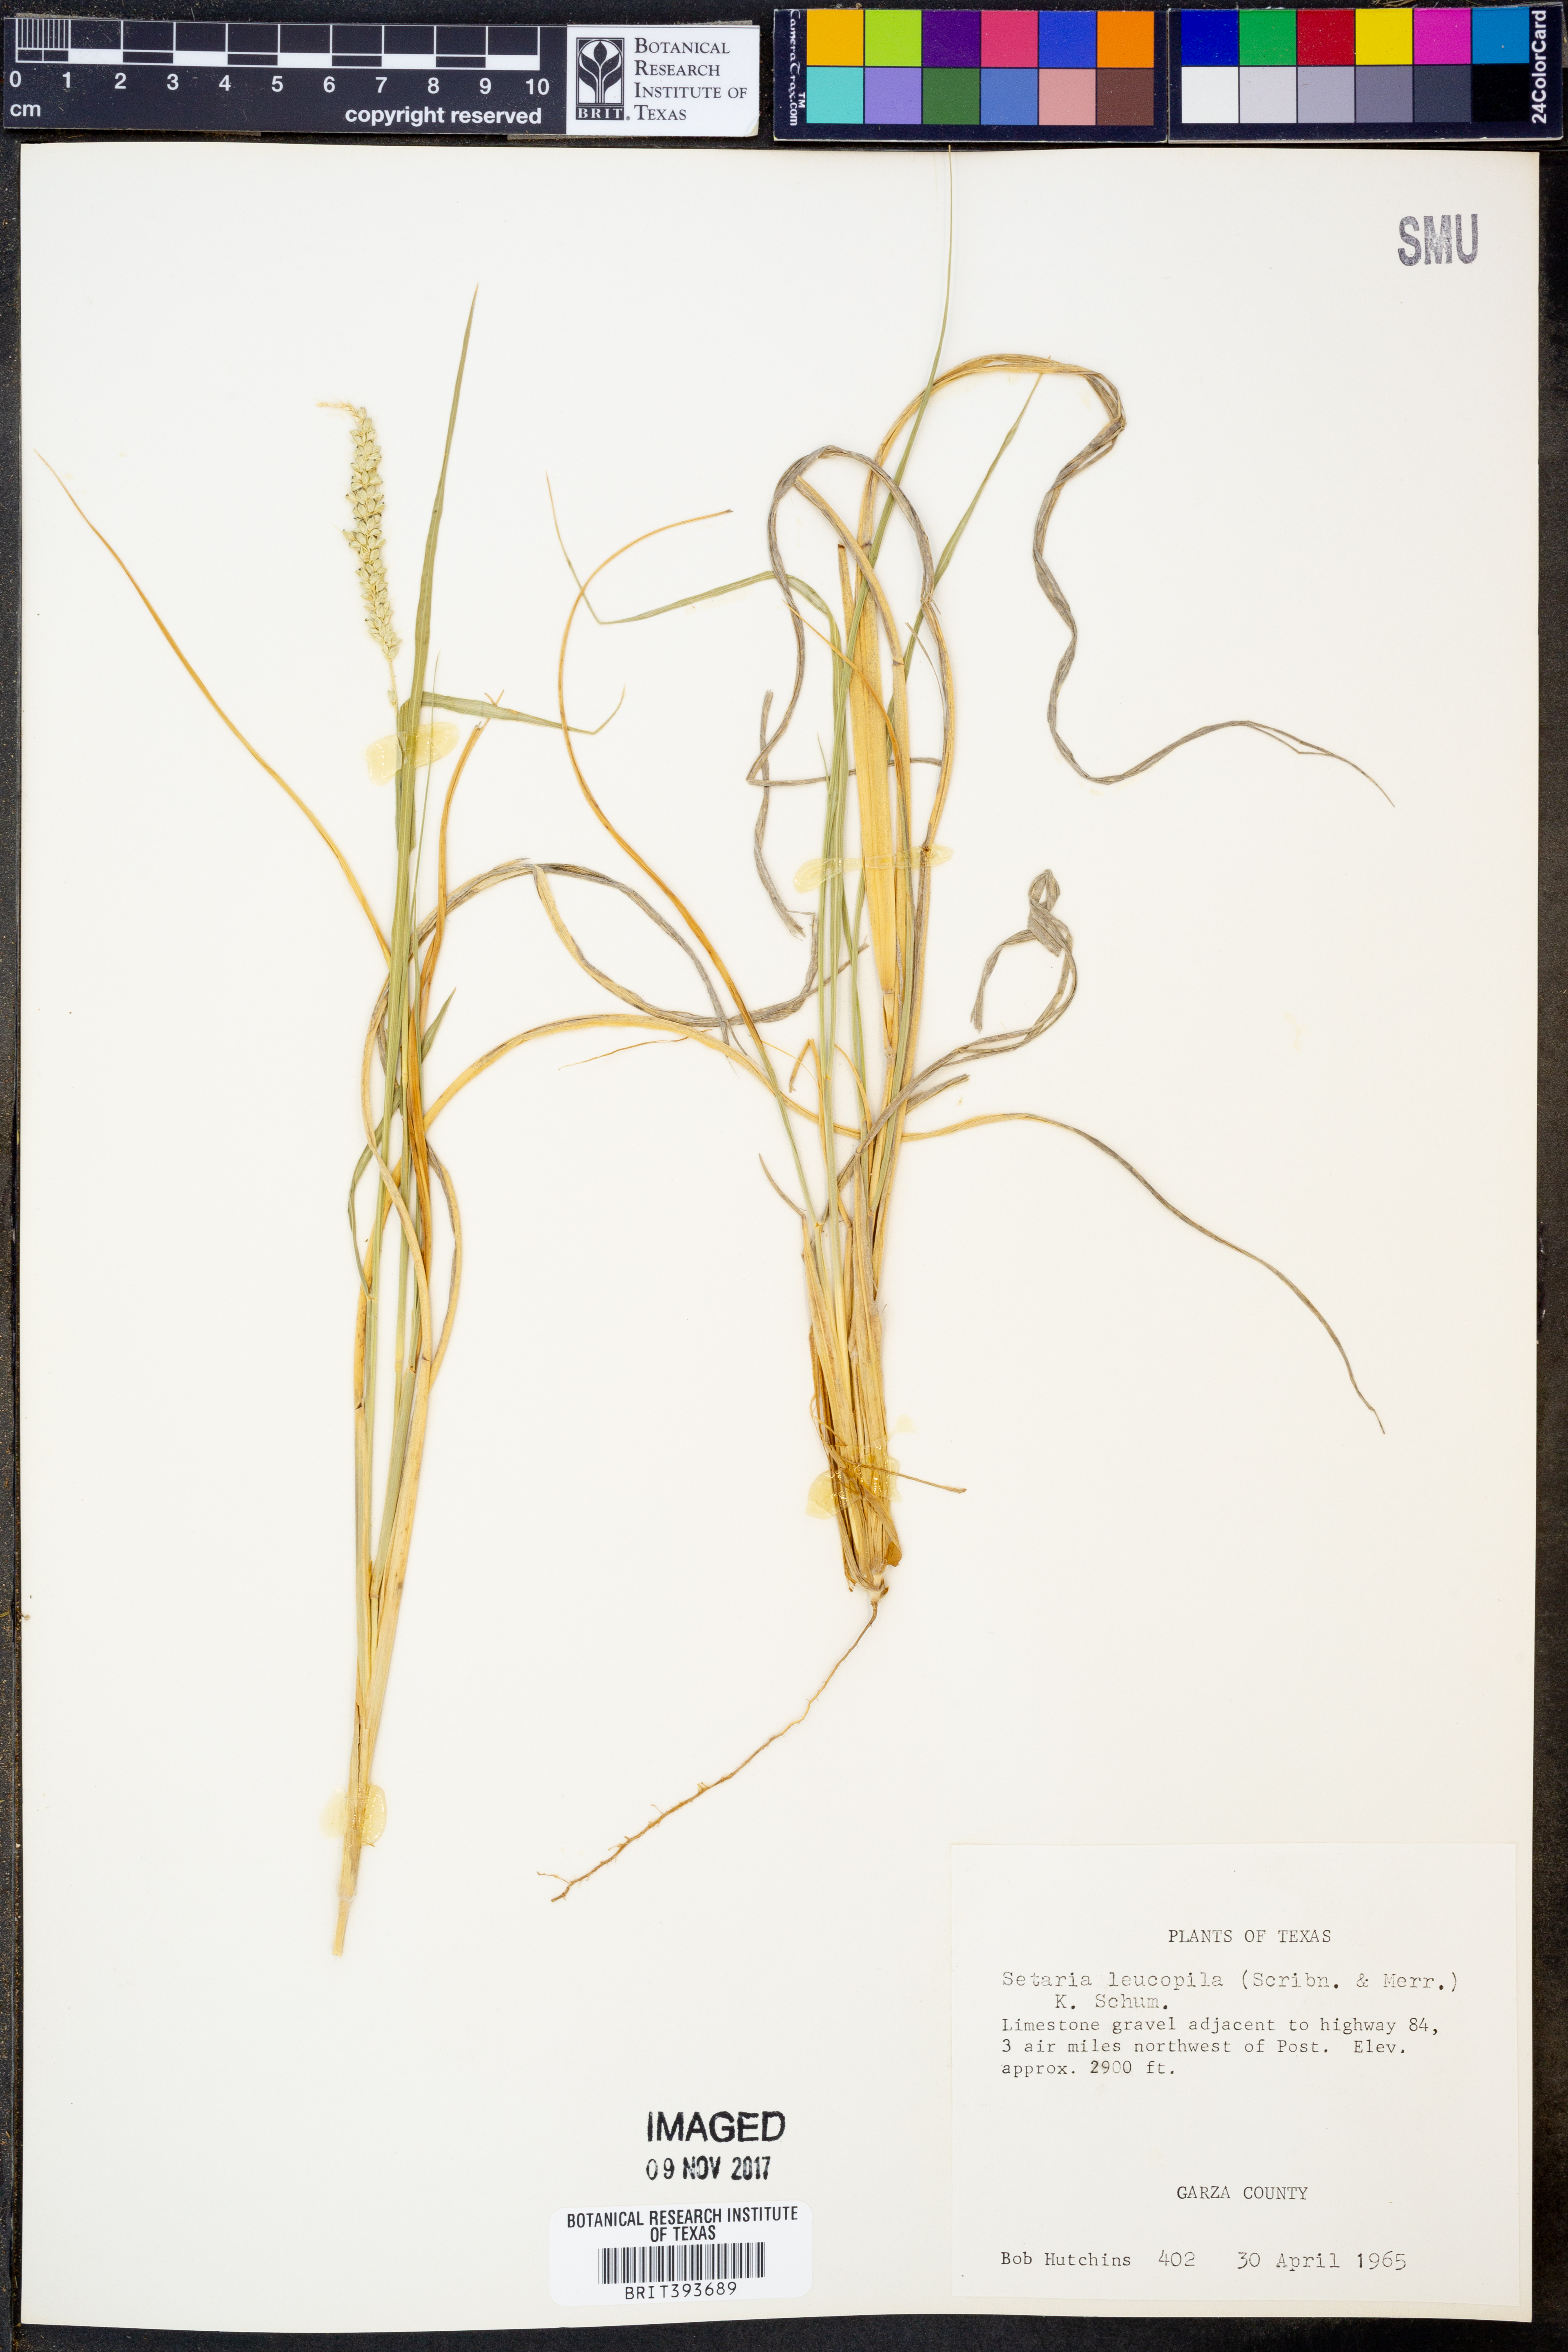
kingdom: Plantae
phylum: Tracheophyta
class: Liliopsida
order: Poales
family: Poaceae
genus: Setaria
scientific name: Setaria leucopila
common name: Plains bristle grass
